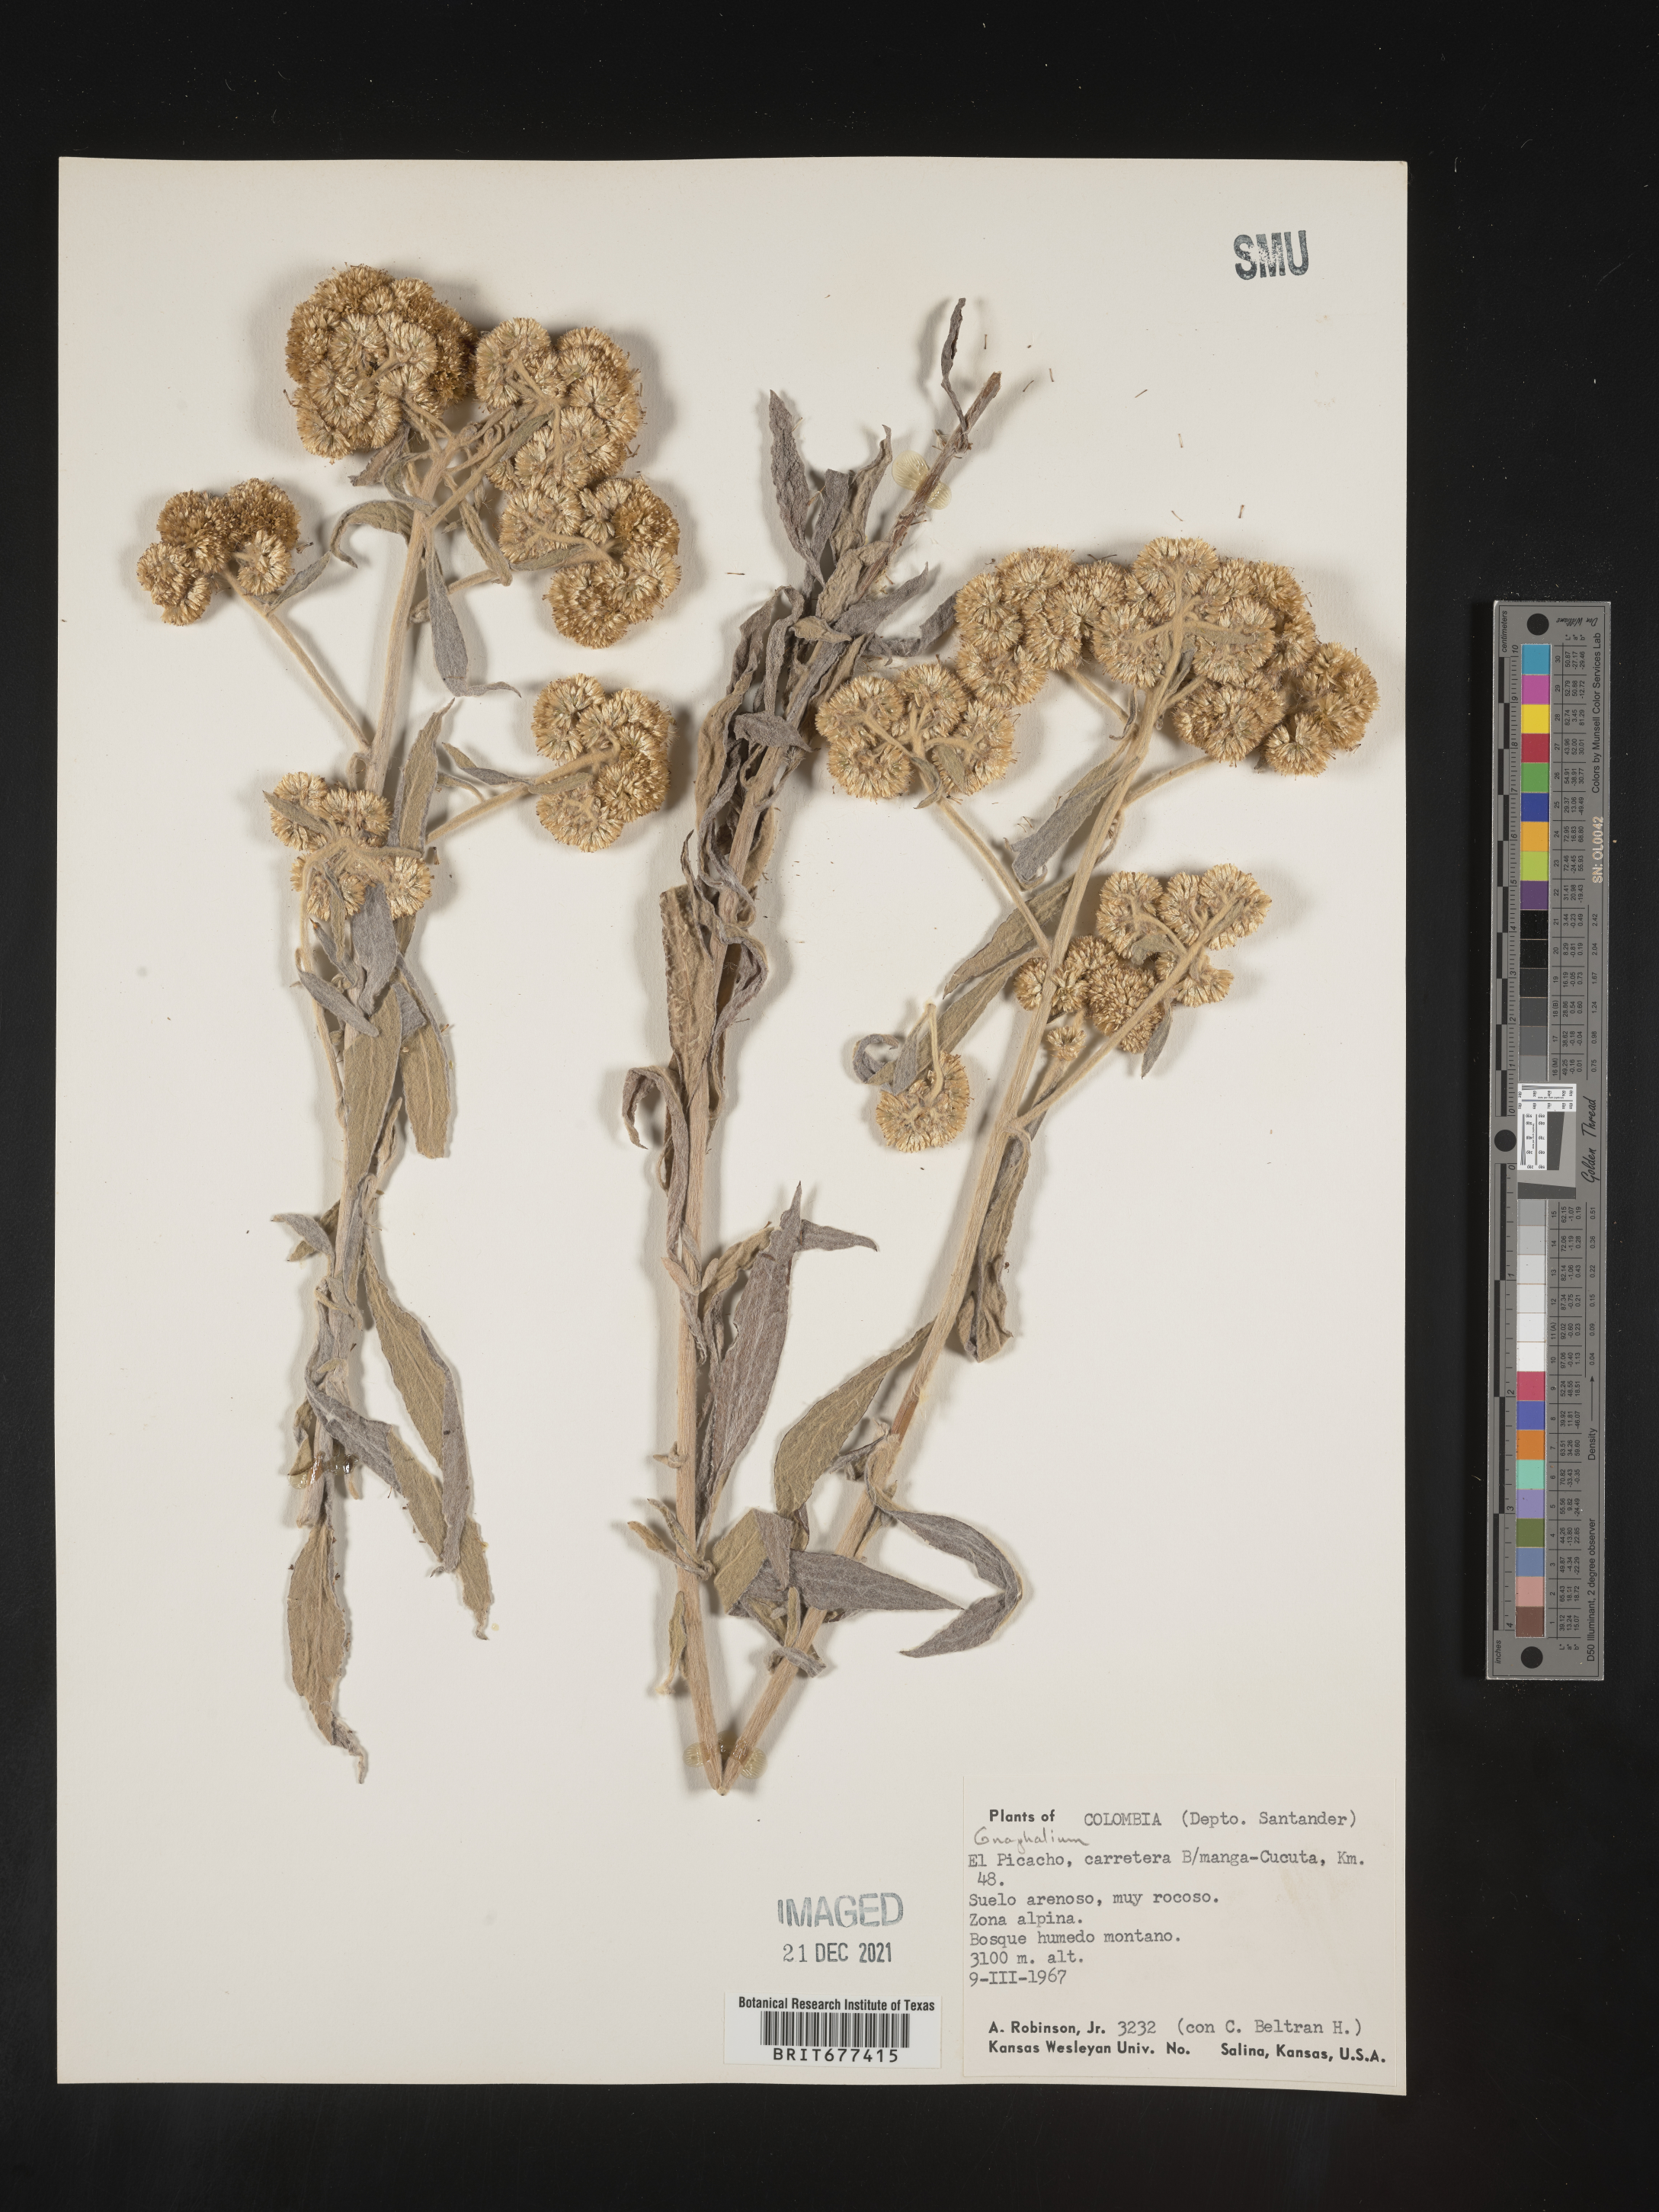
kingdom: Plantae
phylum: Tracheophyta
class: Magnoliopsida
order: Asterales
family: Asteraceae
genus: Achyrocline
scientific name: Achyrocline
